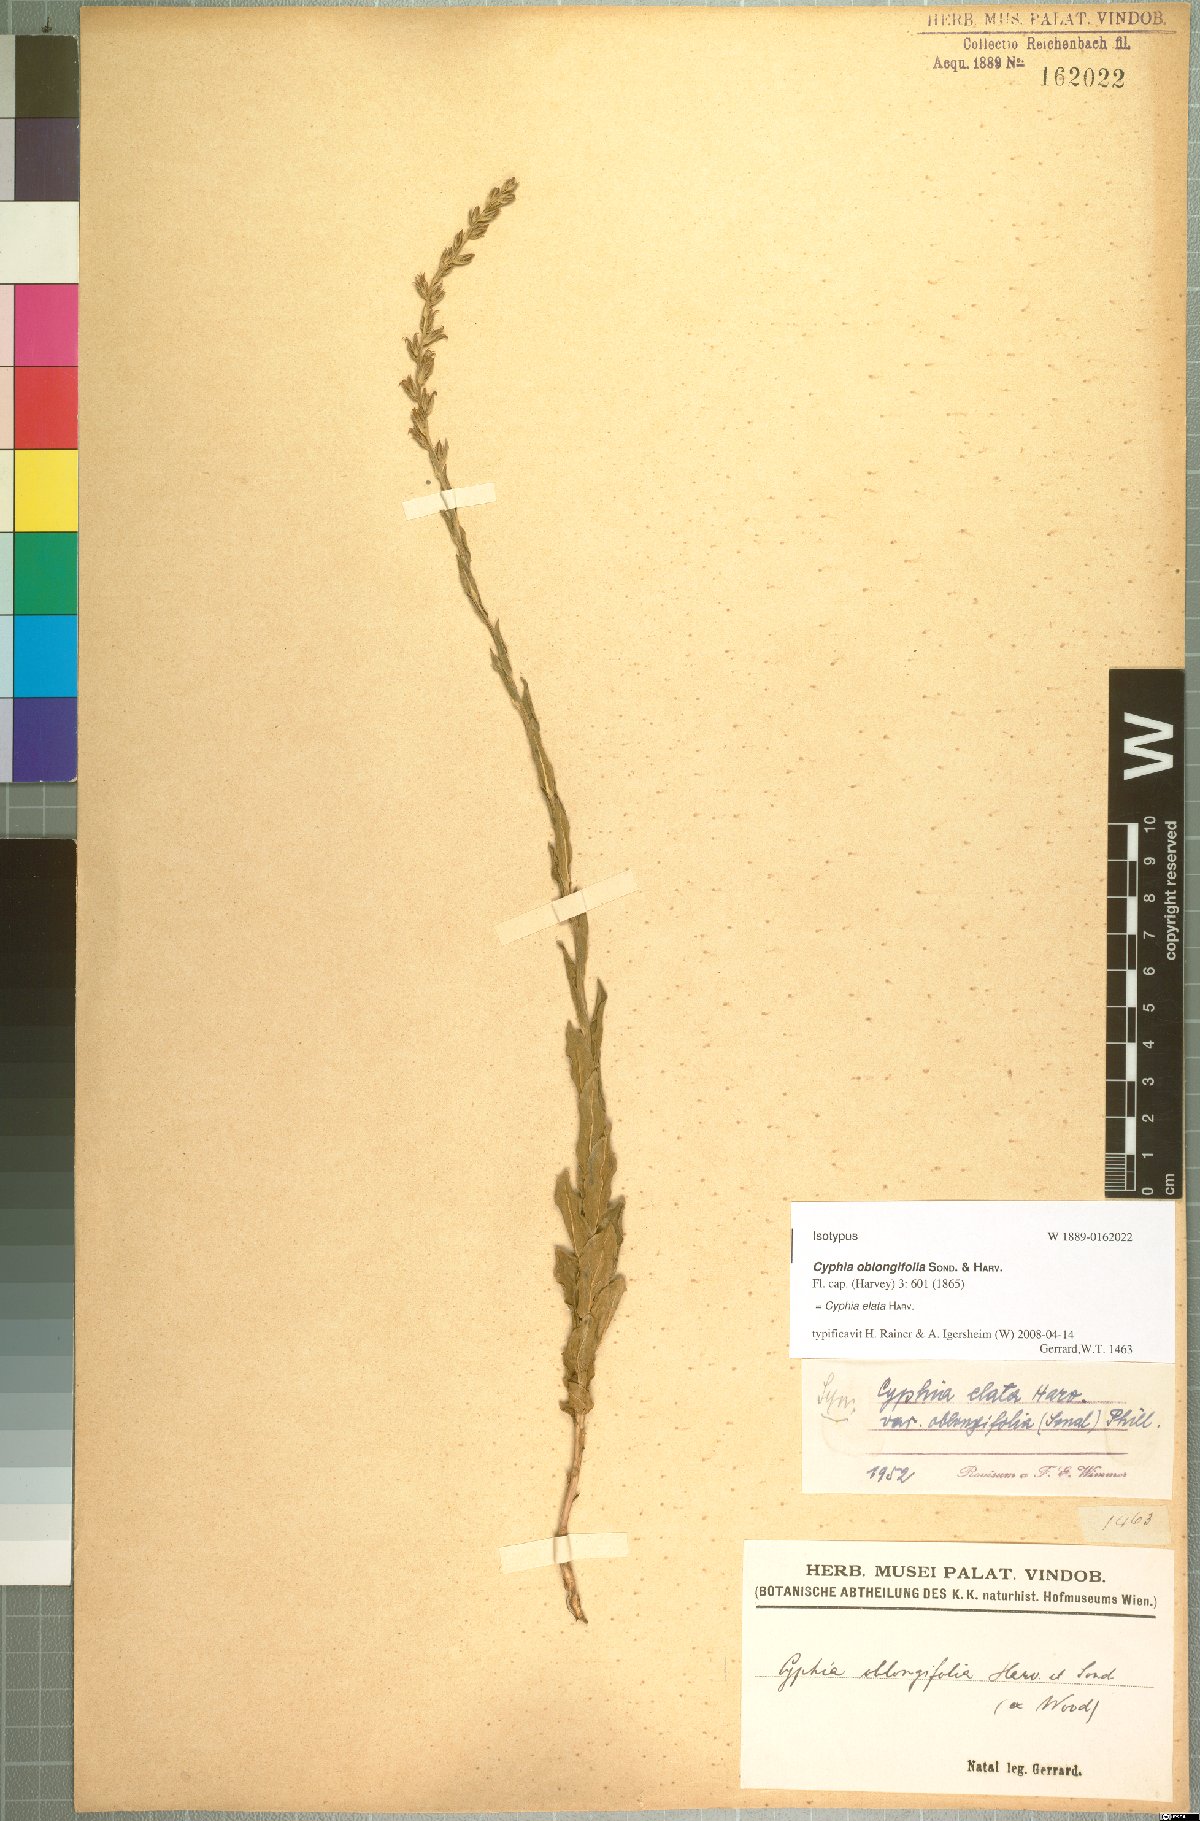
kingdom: Plantae
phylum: Tracheophyta
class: Magnoliopsida
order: Asterales
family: Campanulaceae
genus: Cyphia
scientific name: Cyphia elata
